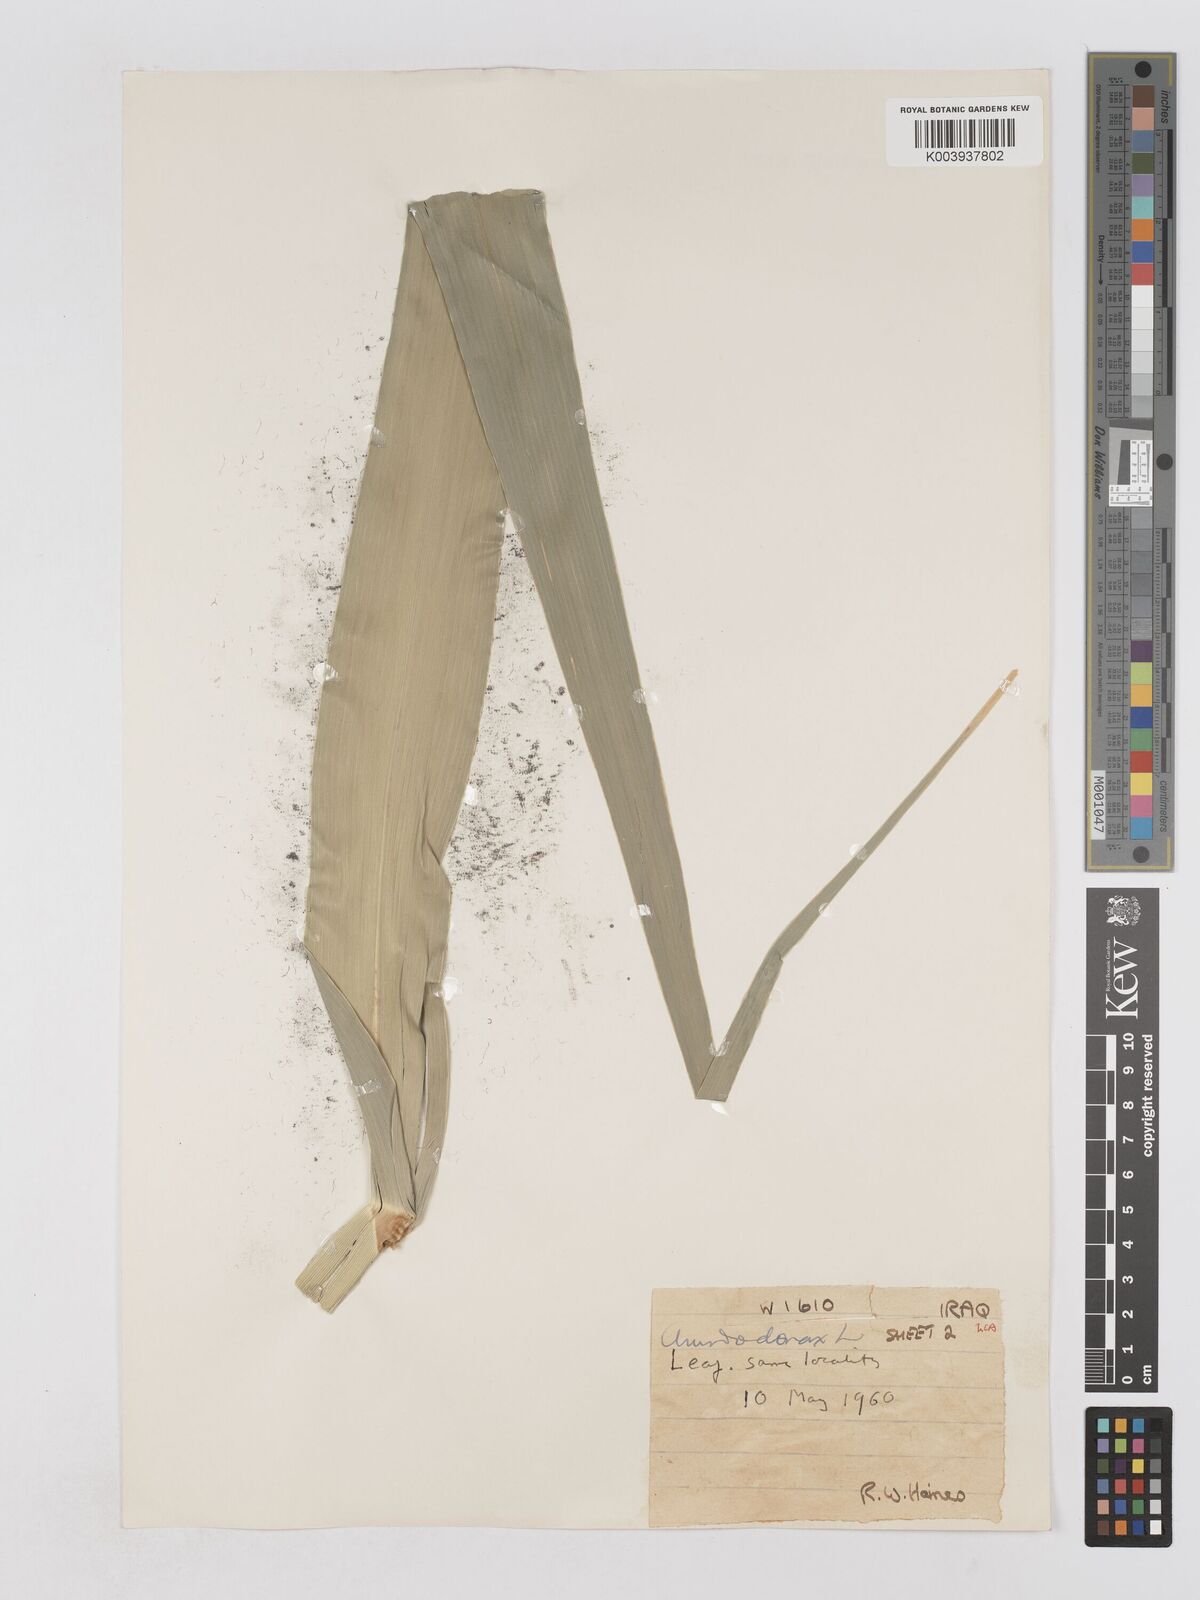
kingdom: Plantae
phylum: Tracheophyta
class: Liliopsida
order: Poales
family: Poaceae
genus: Arundo
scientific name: Arundo donax
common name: Giant reed
